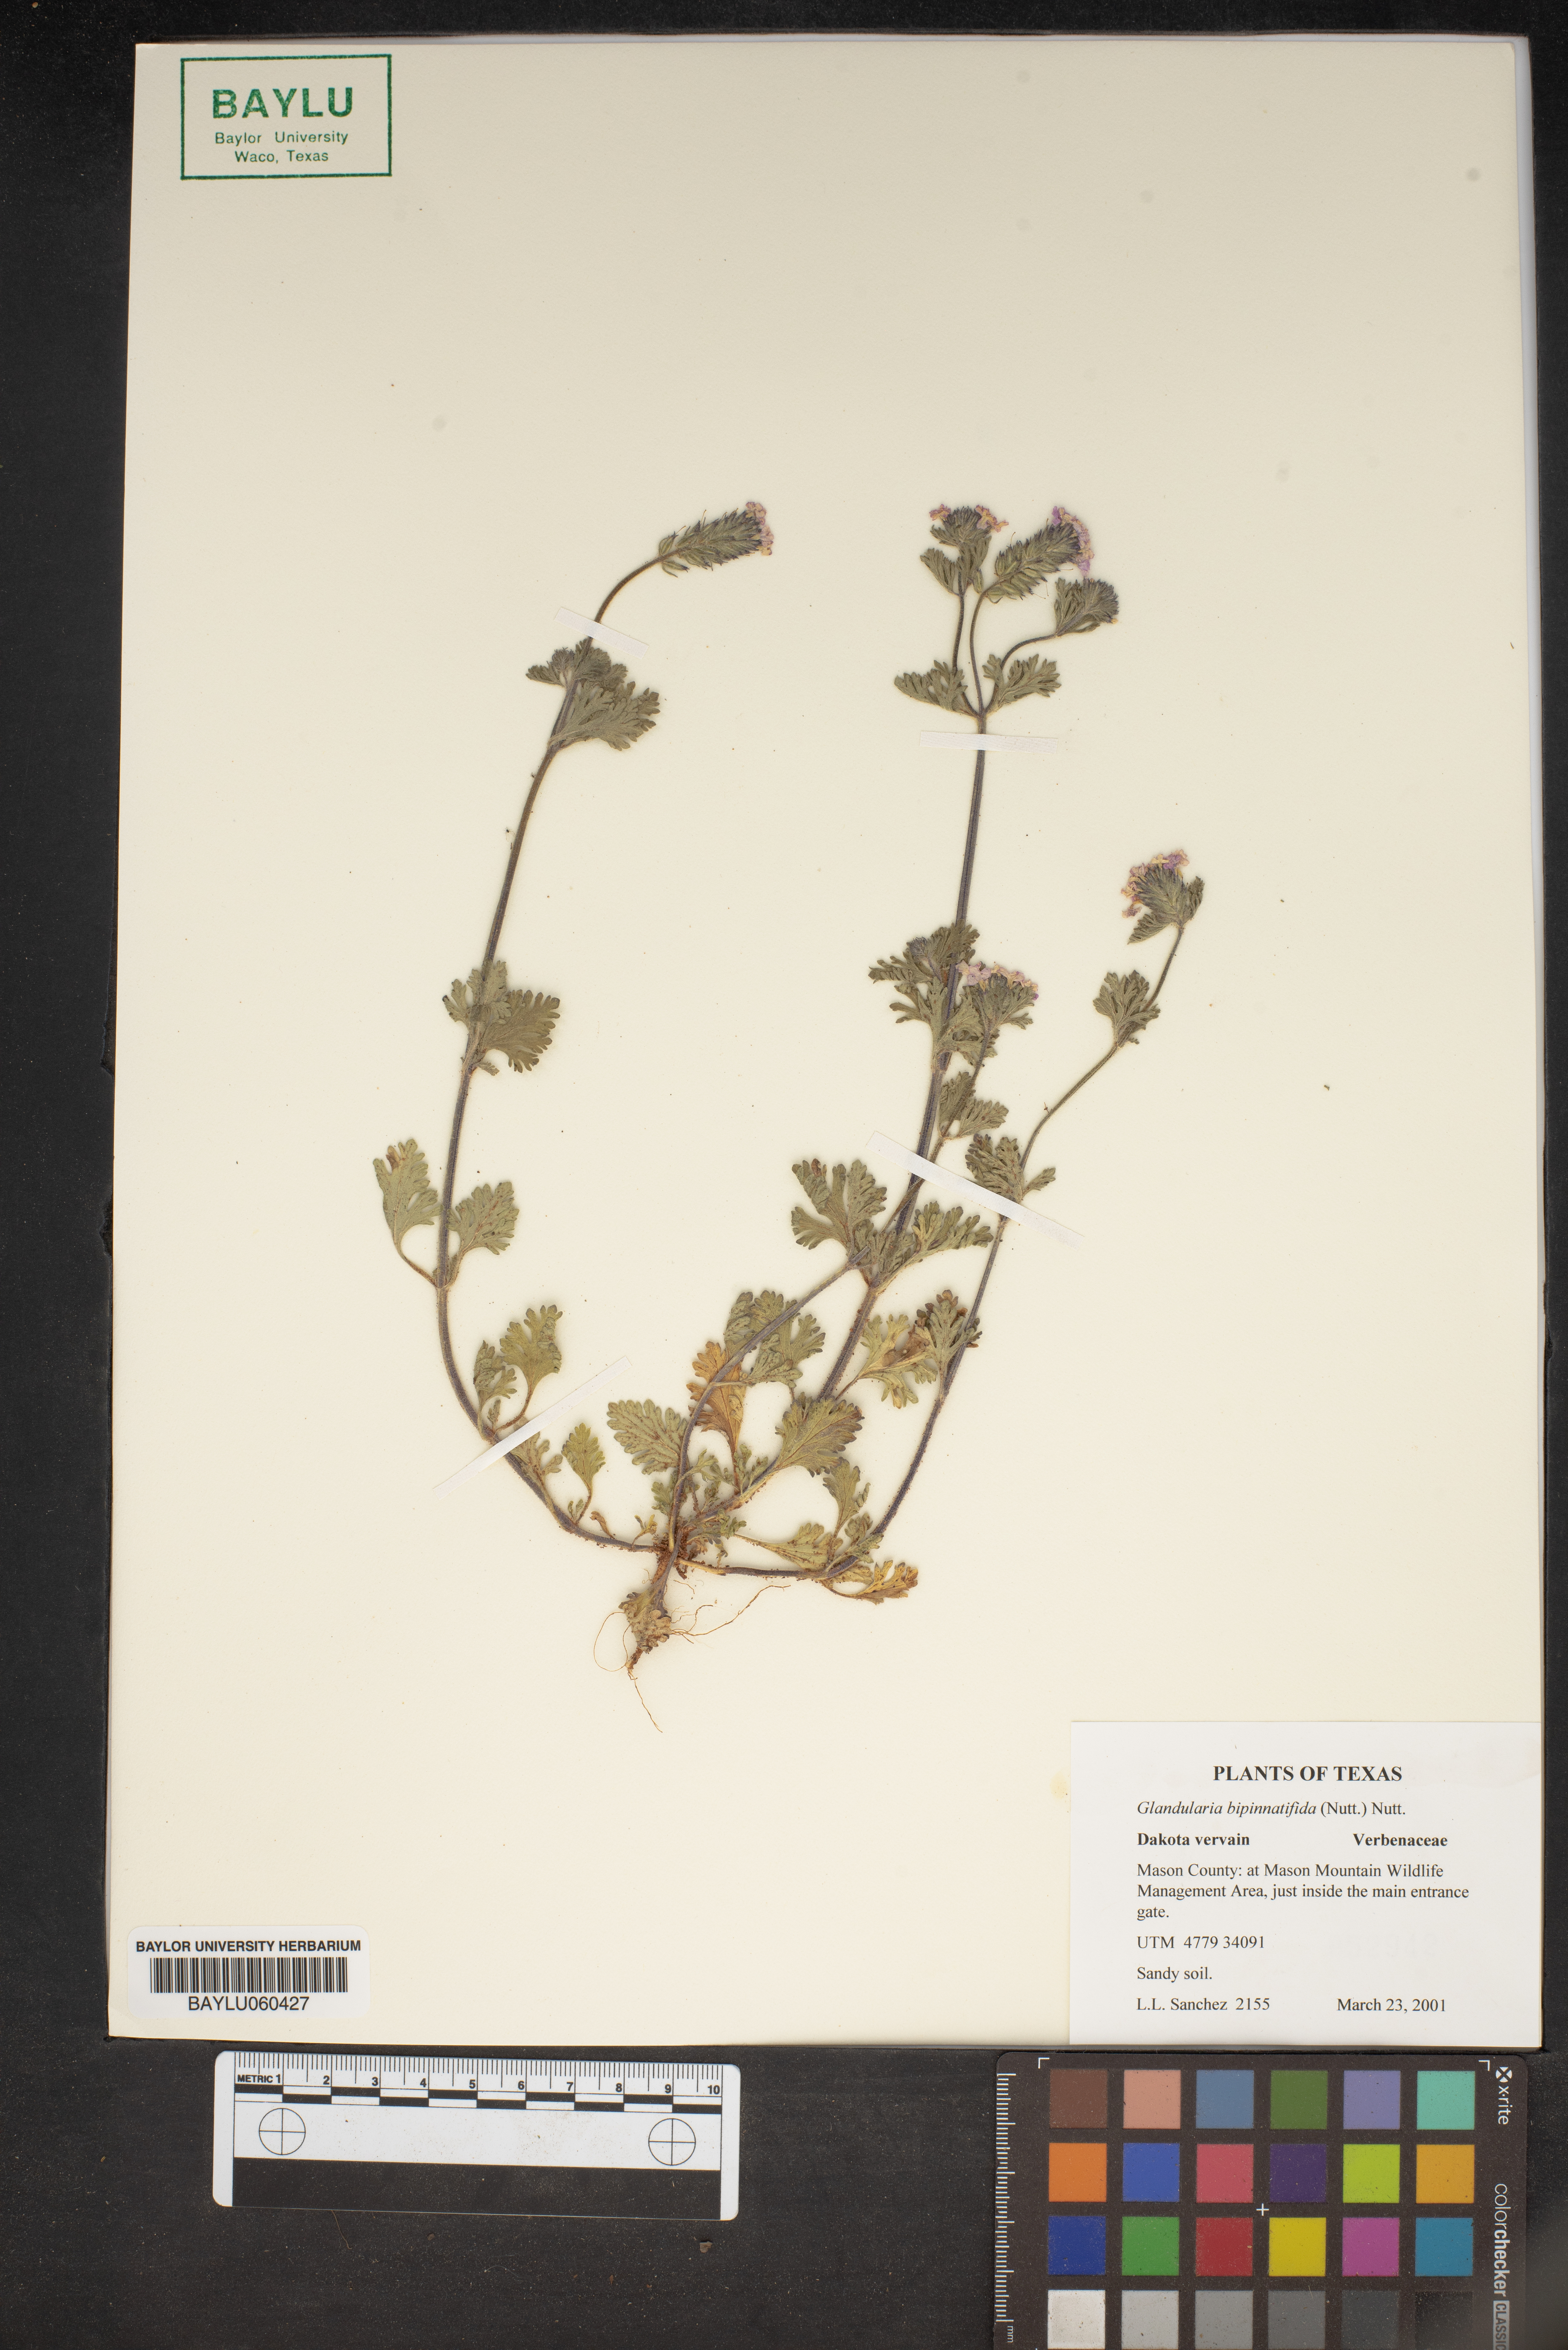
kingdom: Plantae
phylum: Tracheophyta
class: Magnoliopsida
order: Lamiales
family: Verbenaceae
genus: Verbena
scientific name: Verbena bipinnatifida
